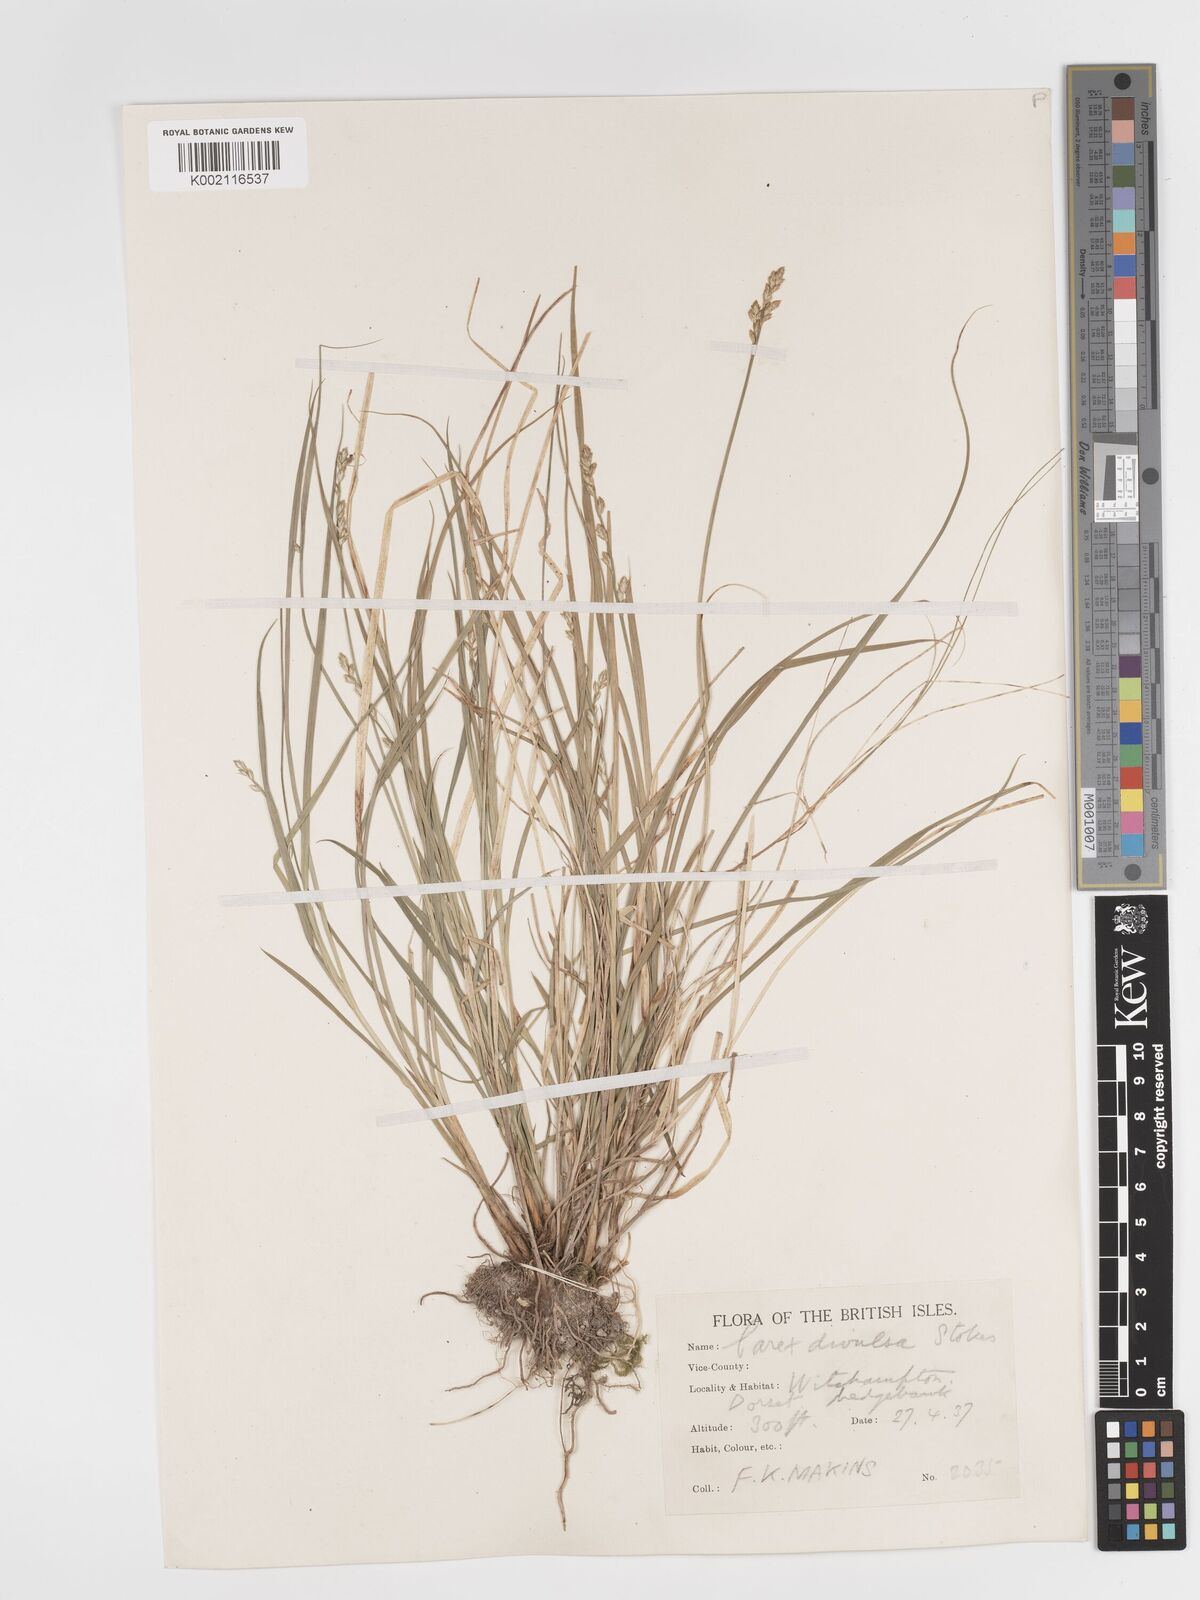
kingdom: Plantae
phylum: Tracheophyta
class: Liliopsida
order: Poales
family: Cyperaceae
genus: Carex
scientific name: Carex divulsa
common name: Grassland sedge
